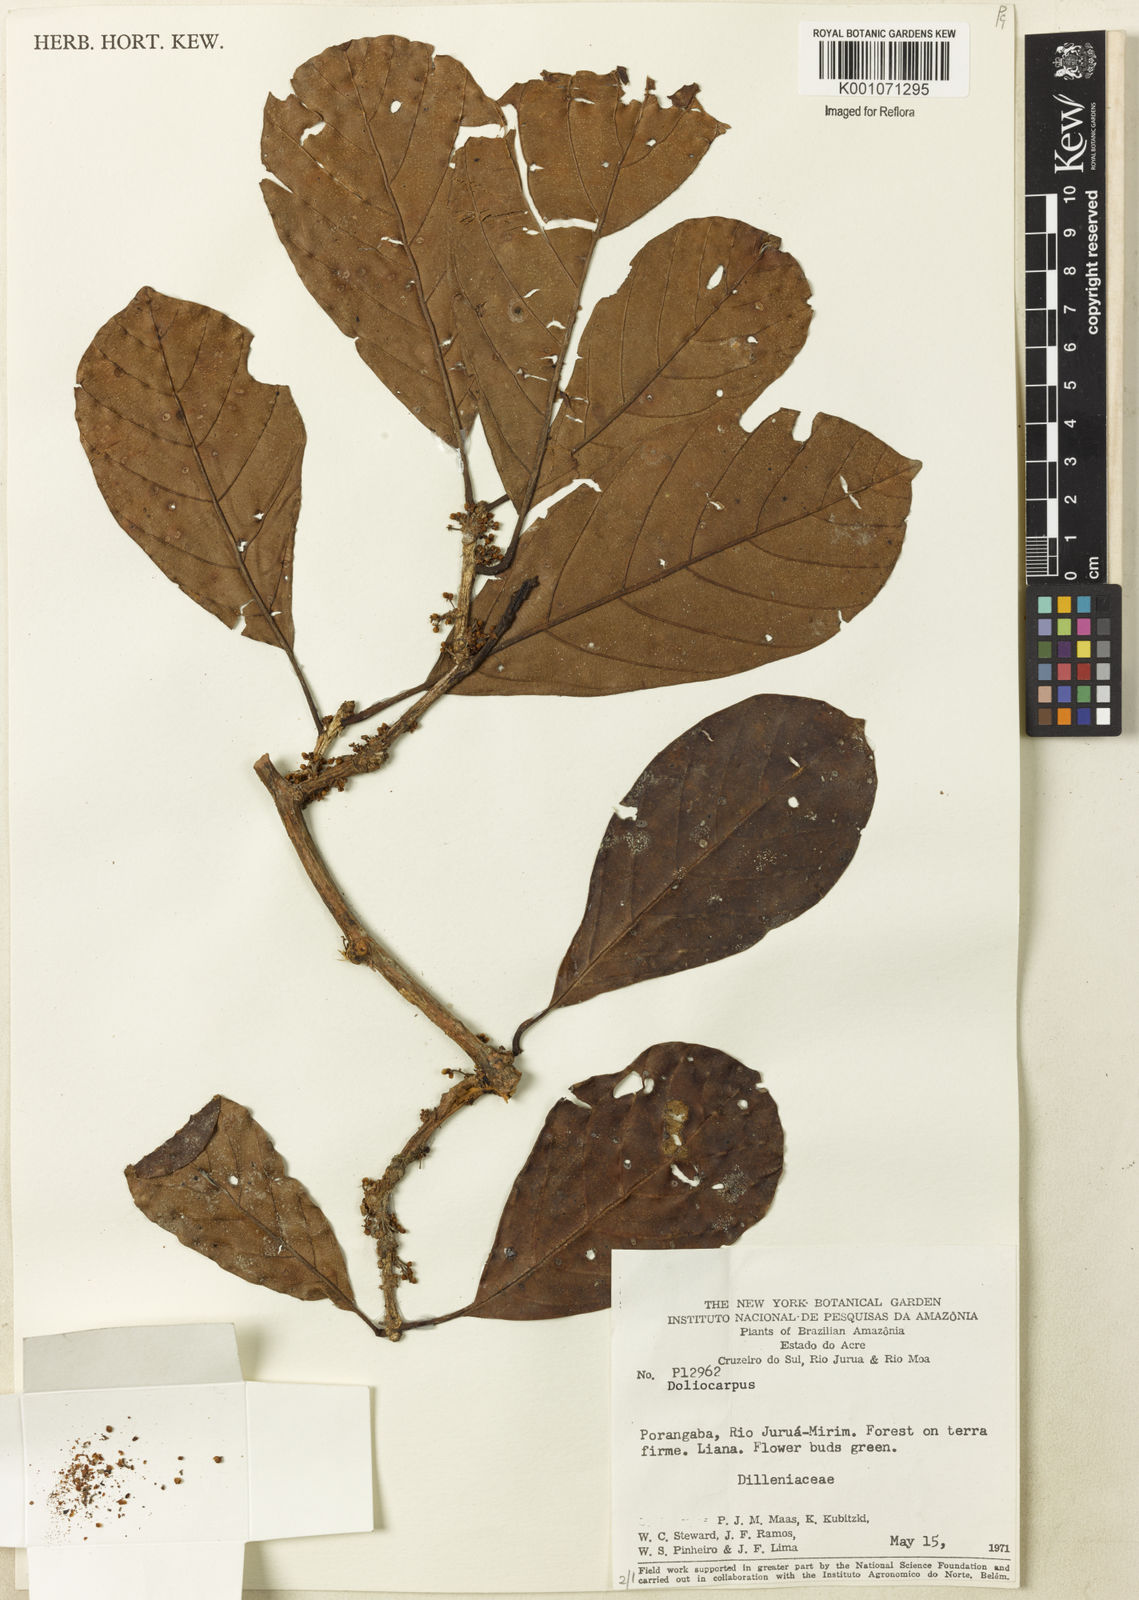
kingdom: Plantae
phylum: Tracheophyta
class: Magnoliopsida
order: Dilleniales
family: Dilleniaceae
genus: Doliocarpus
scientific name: Doliocarpus
